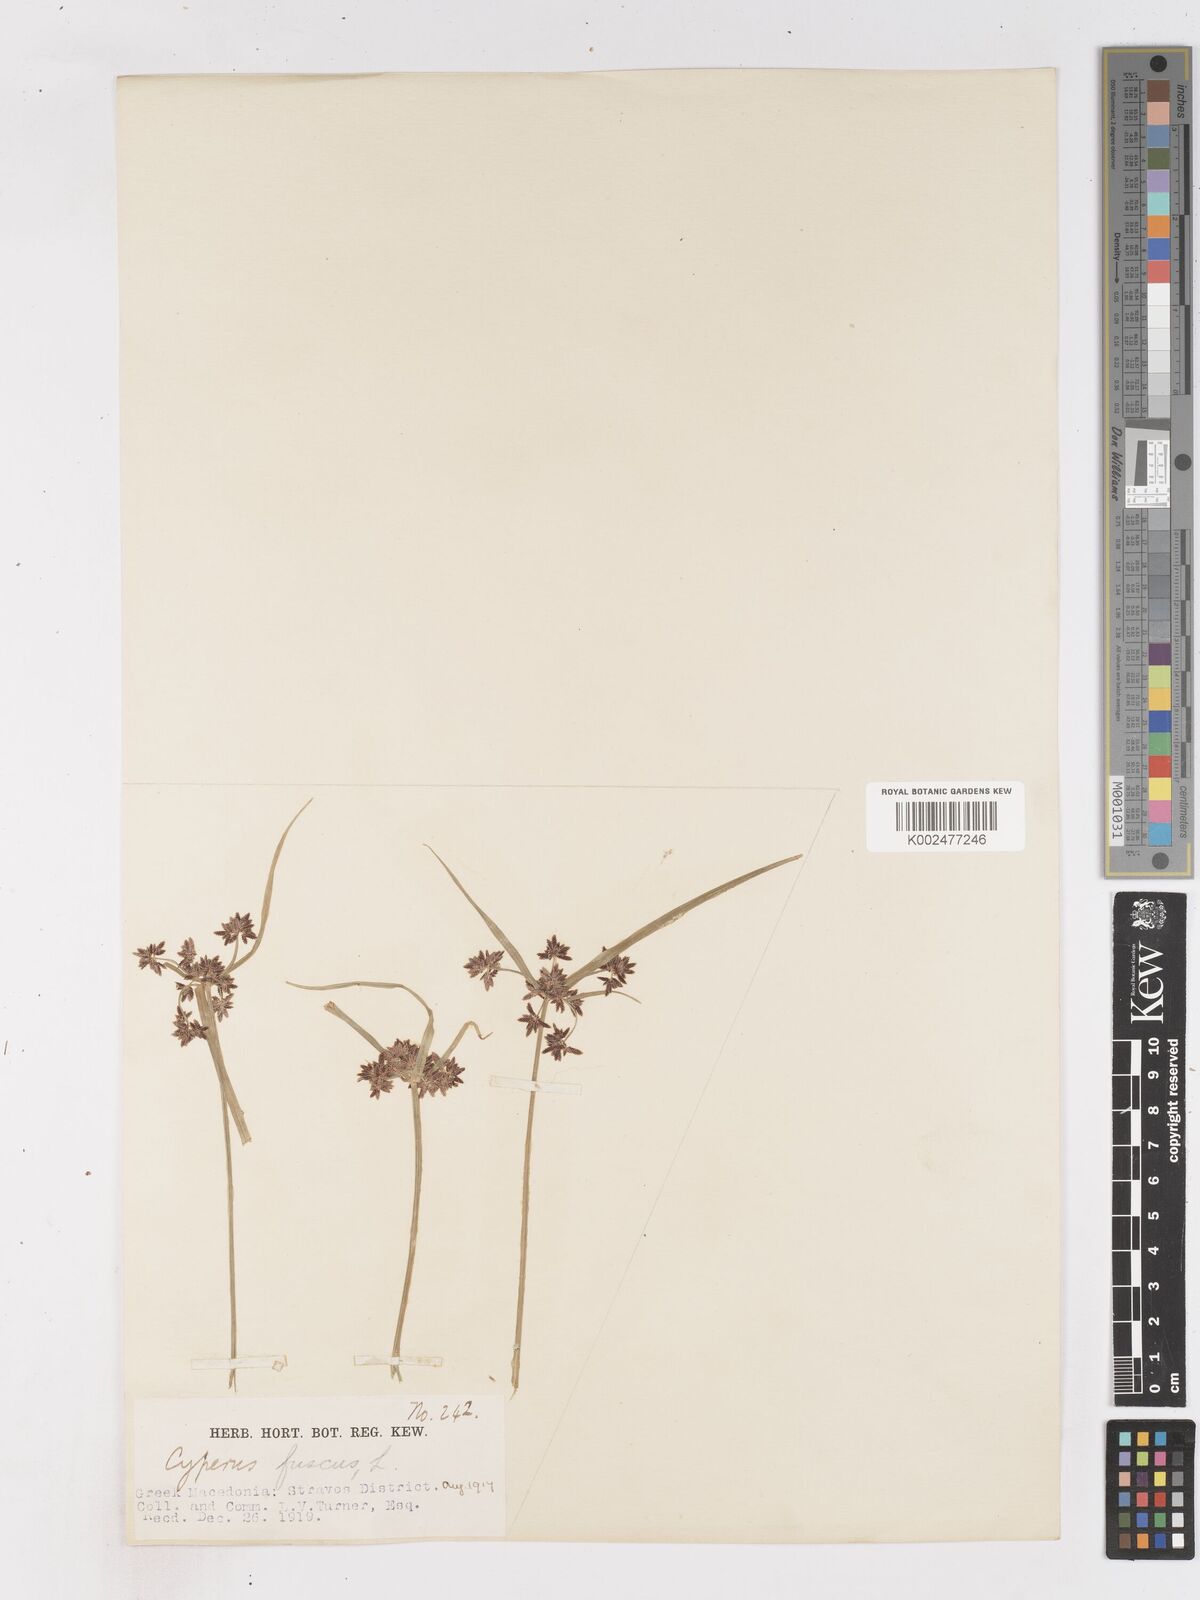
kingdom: Plantae
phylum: Tracheophyta
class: Liliopsida
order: Poales
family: Cyperaceae
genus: Cyperus
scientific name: Cyperus fuscus
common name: Brown galingale
